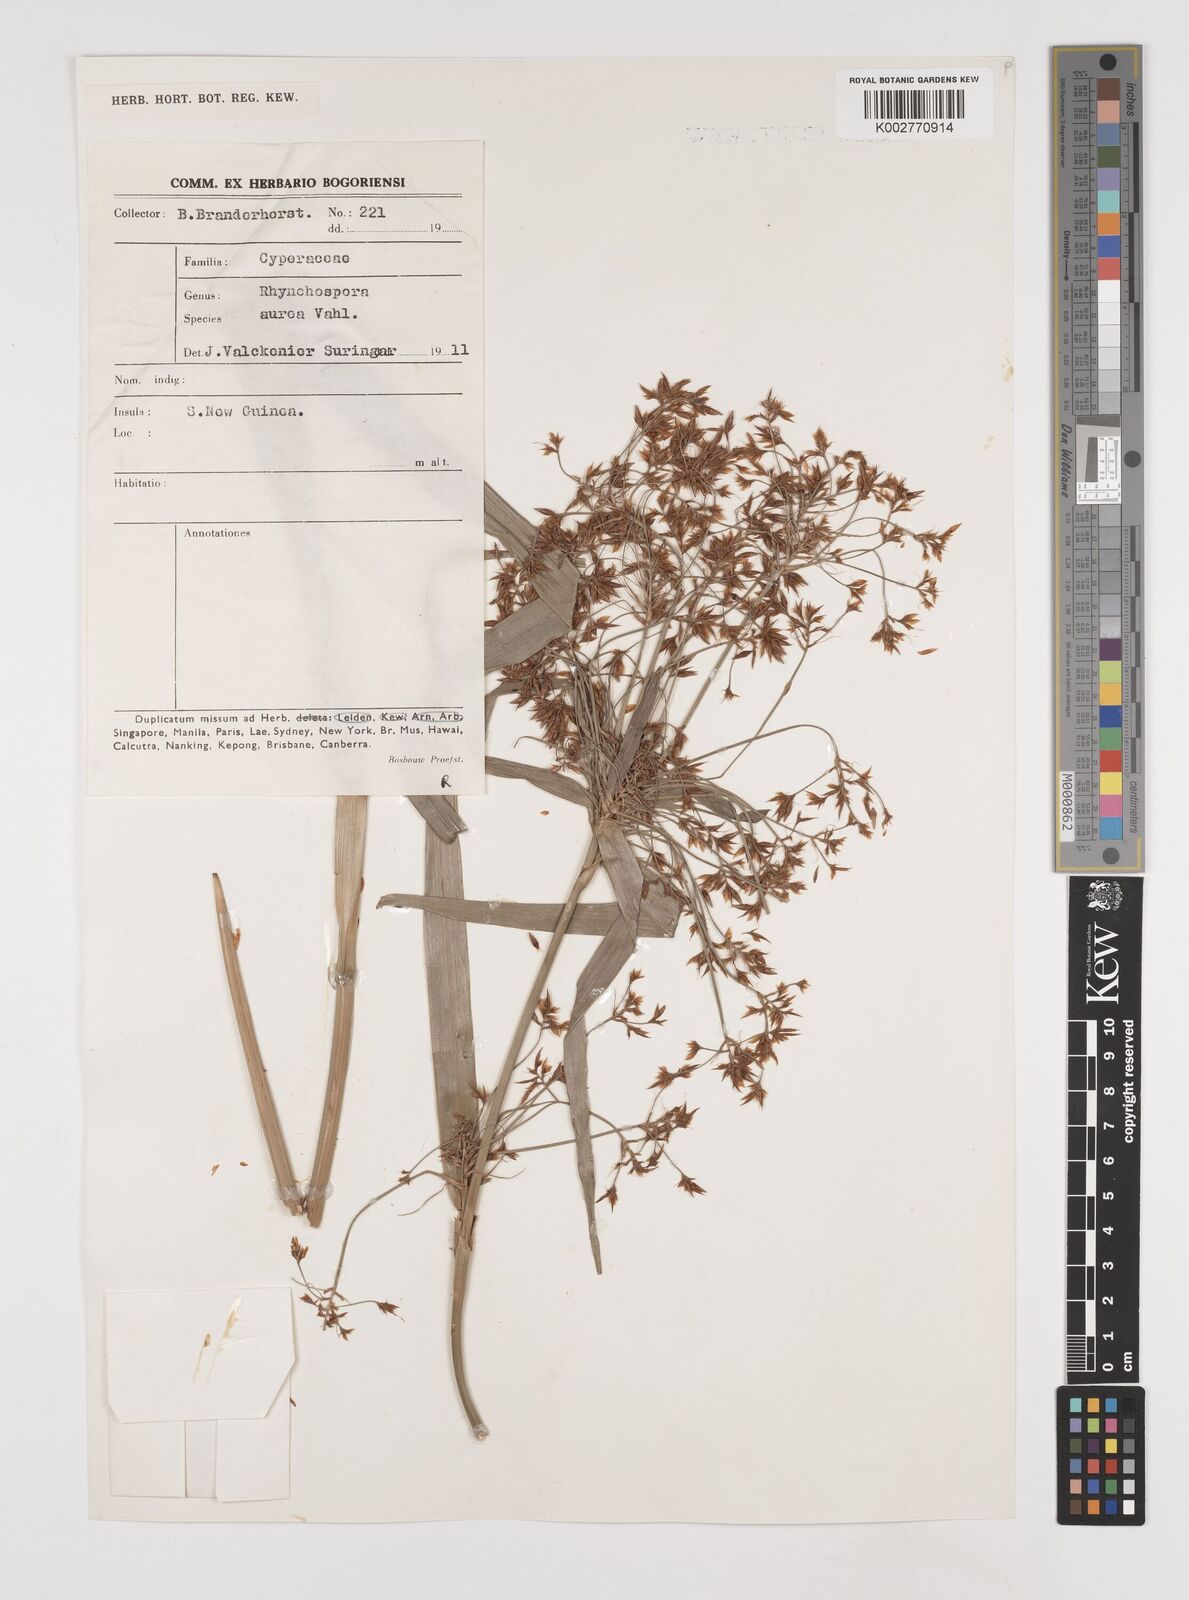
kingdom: Plantae
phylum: Tracheophyta
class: Liliopsida
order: Poales
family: Cyperaceae
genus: Rhynchospora
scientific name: Rhynchospora corymbosa
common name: Golden beak sedge
